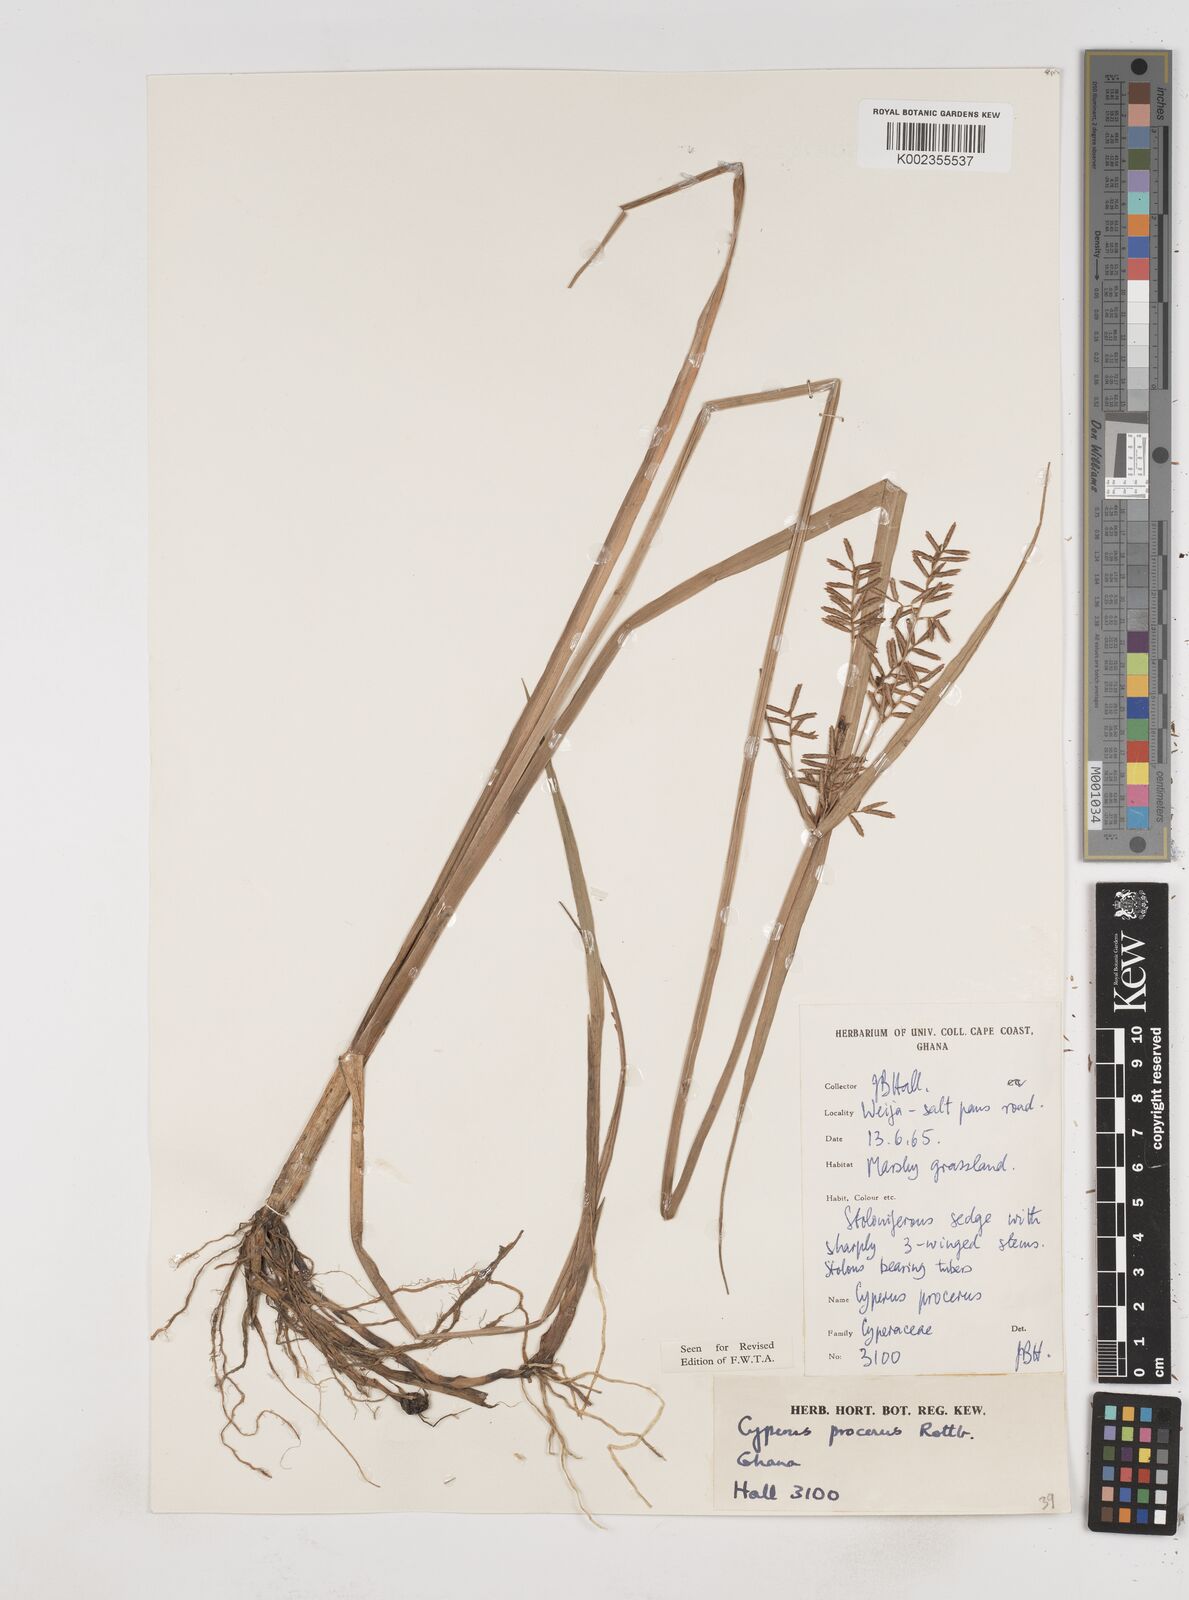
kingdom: Plantae
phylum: Tracheophyta
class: Liliopsida
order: Poales
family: Cyperaceae
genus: Cyperus
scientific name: Cyperus procerus
